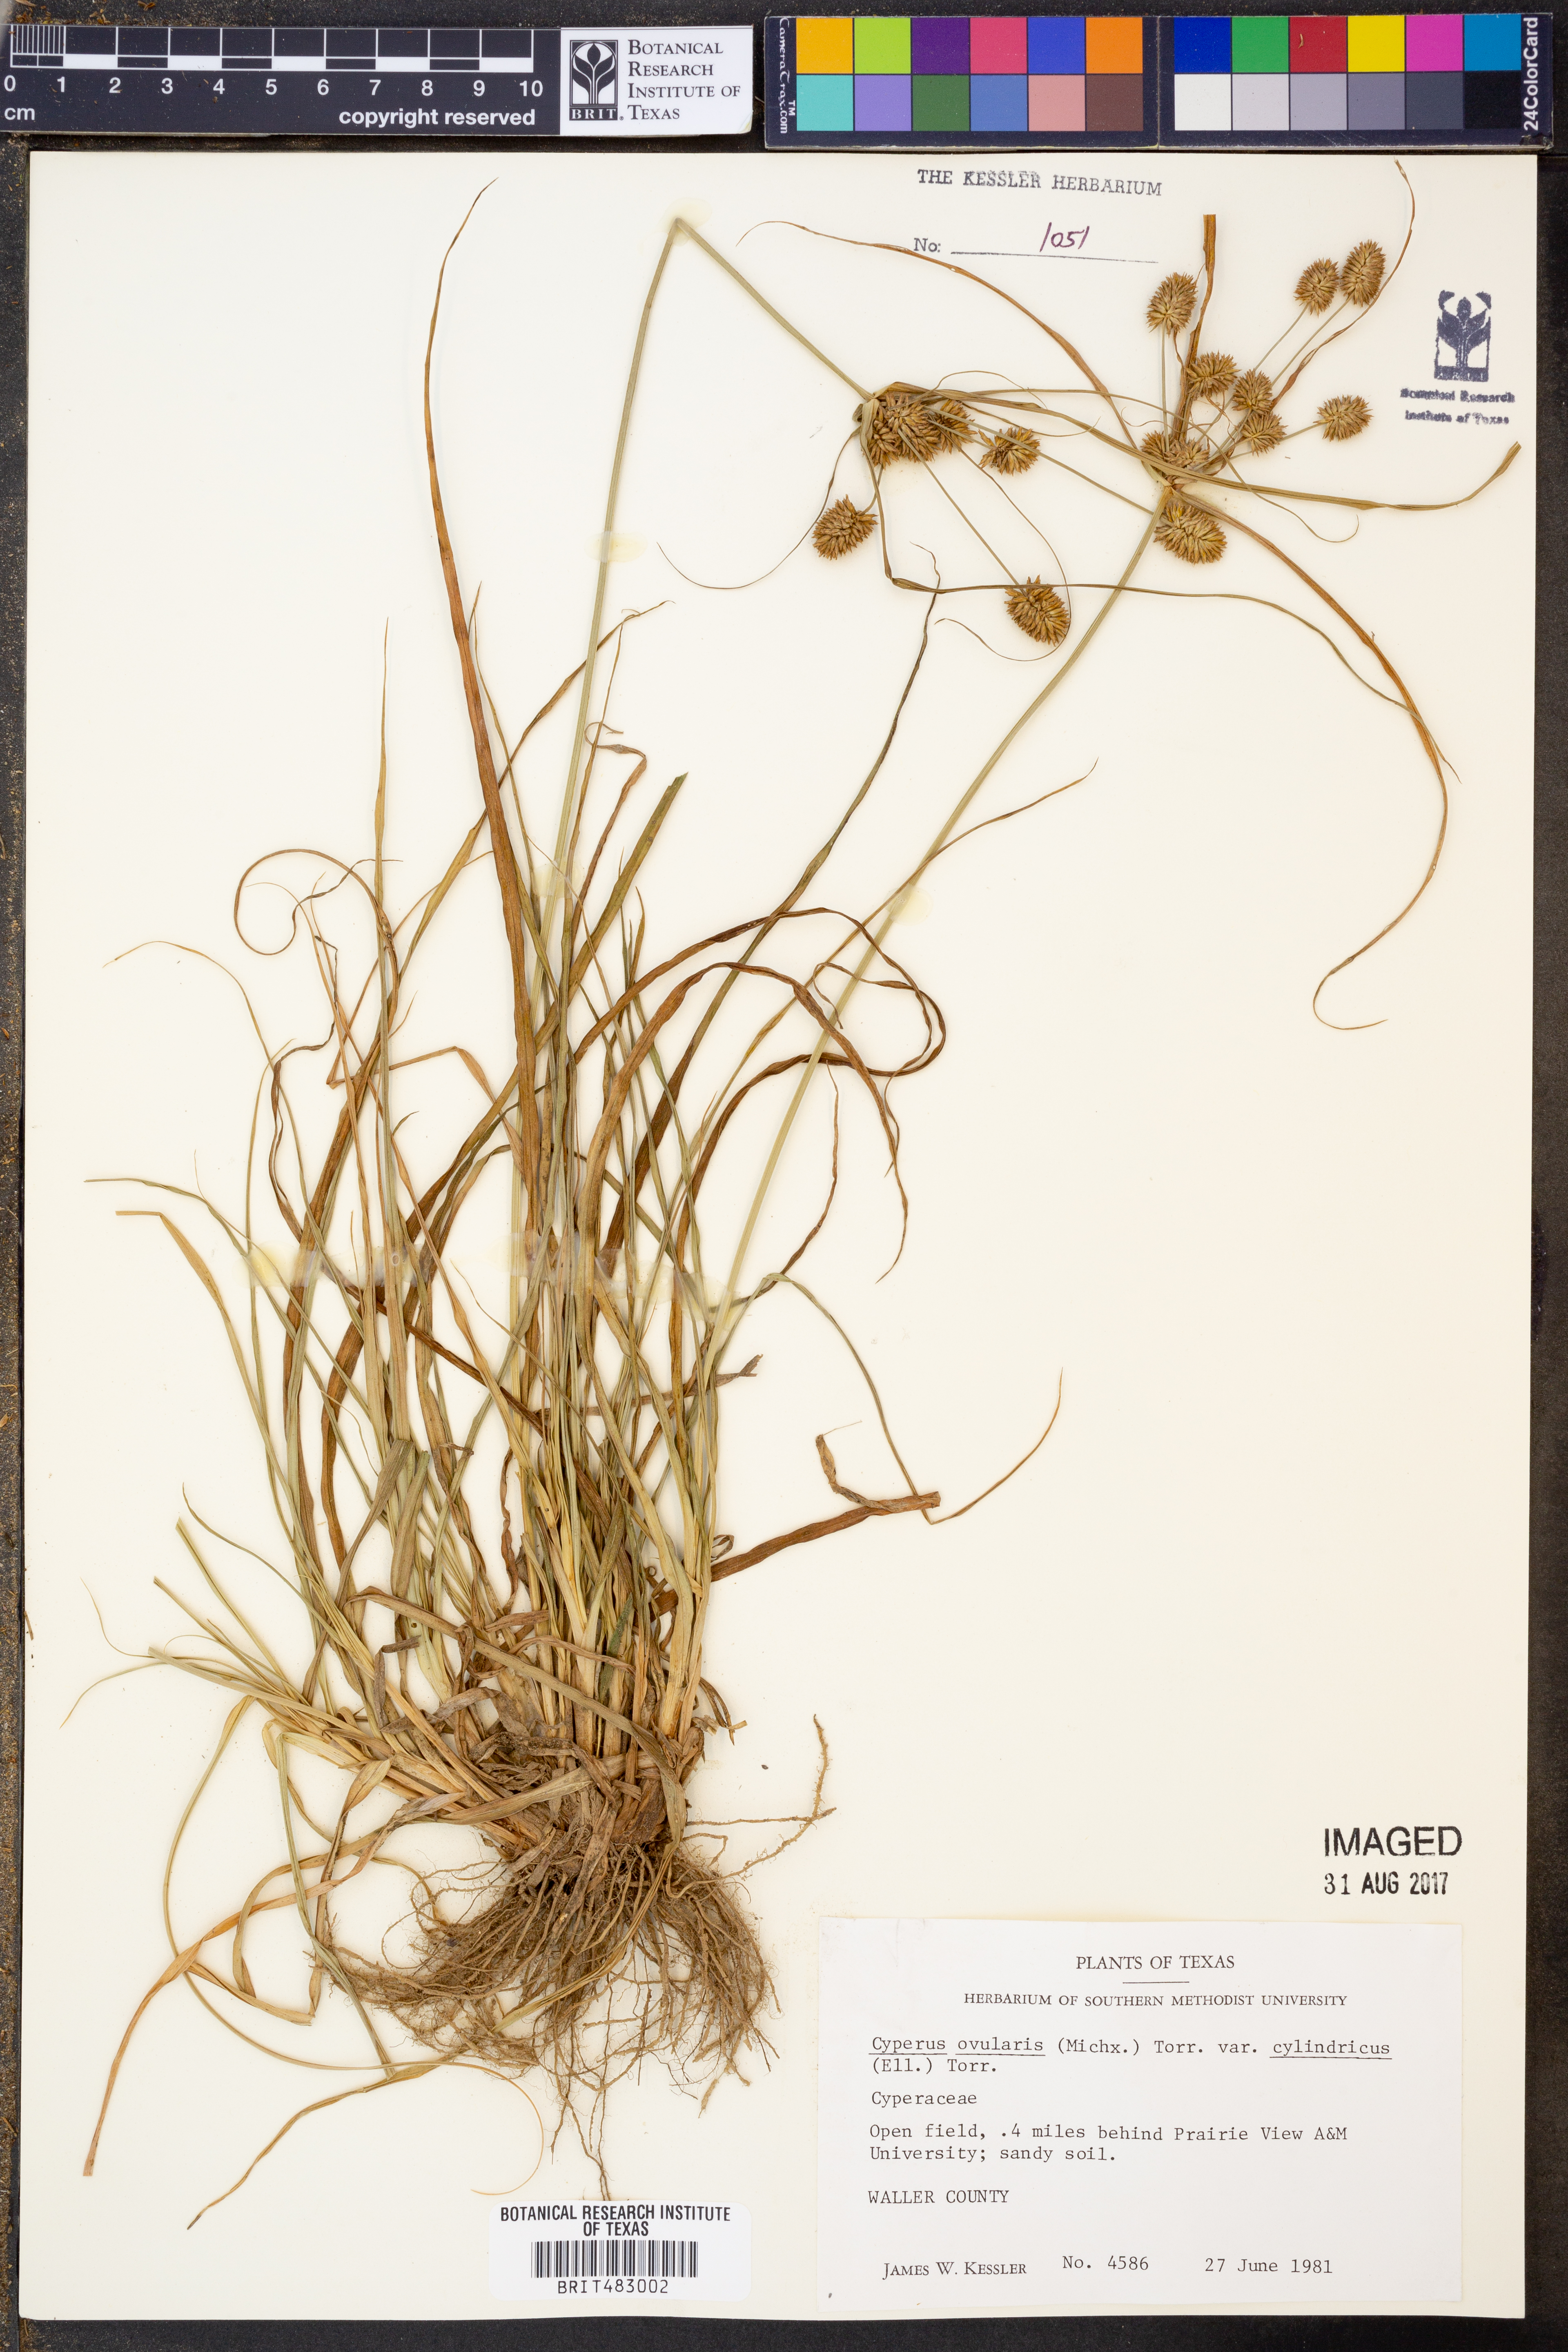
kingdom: Plantae
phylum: Tracheophyta
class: Liliopsida
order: Poales
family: Cyperaceae
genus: Cyperus
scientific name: Cyperus retrorsus
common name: Pinebarren flat sedge
